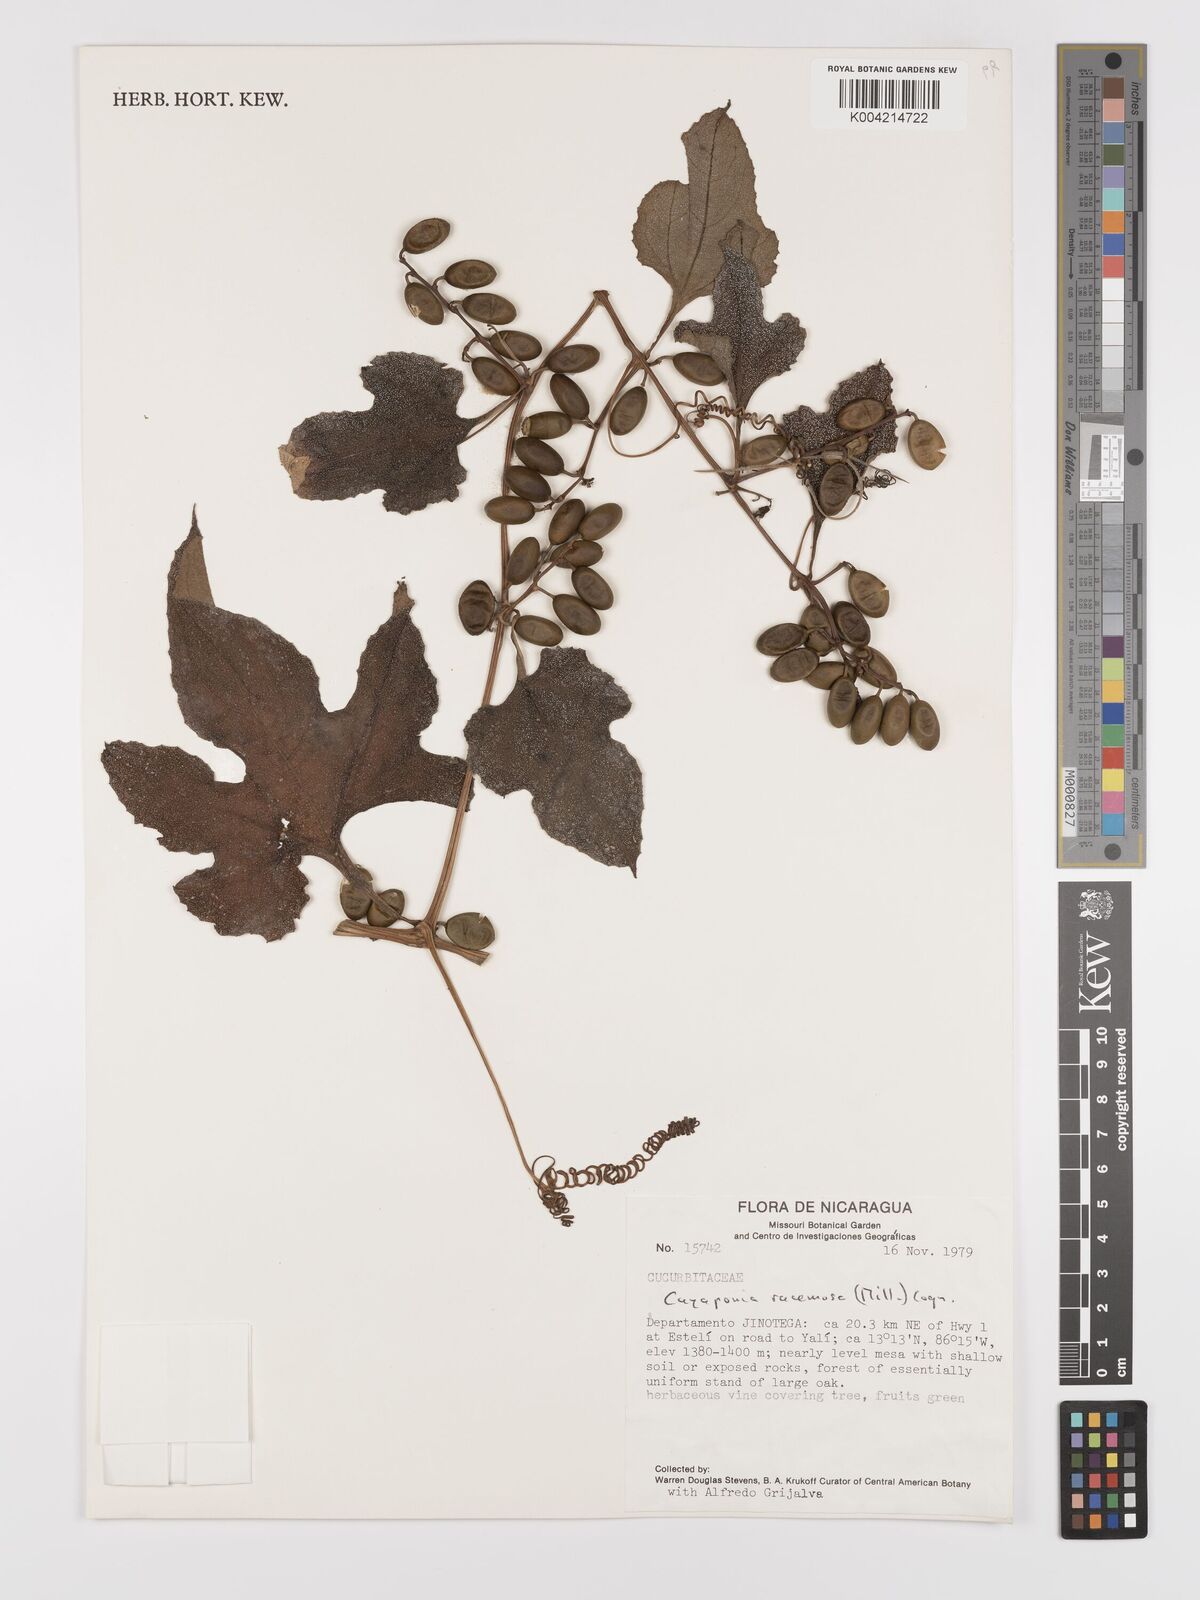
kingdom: Plantae
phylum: Tracheophyta
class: Magnoliopsida
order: Cucurbitales
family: Cucurbitaceae
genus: Cayaponia
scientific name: Cayaponia racemosa
